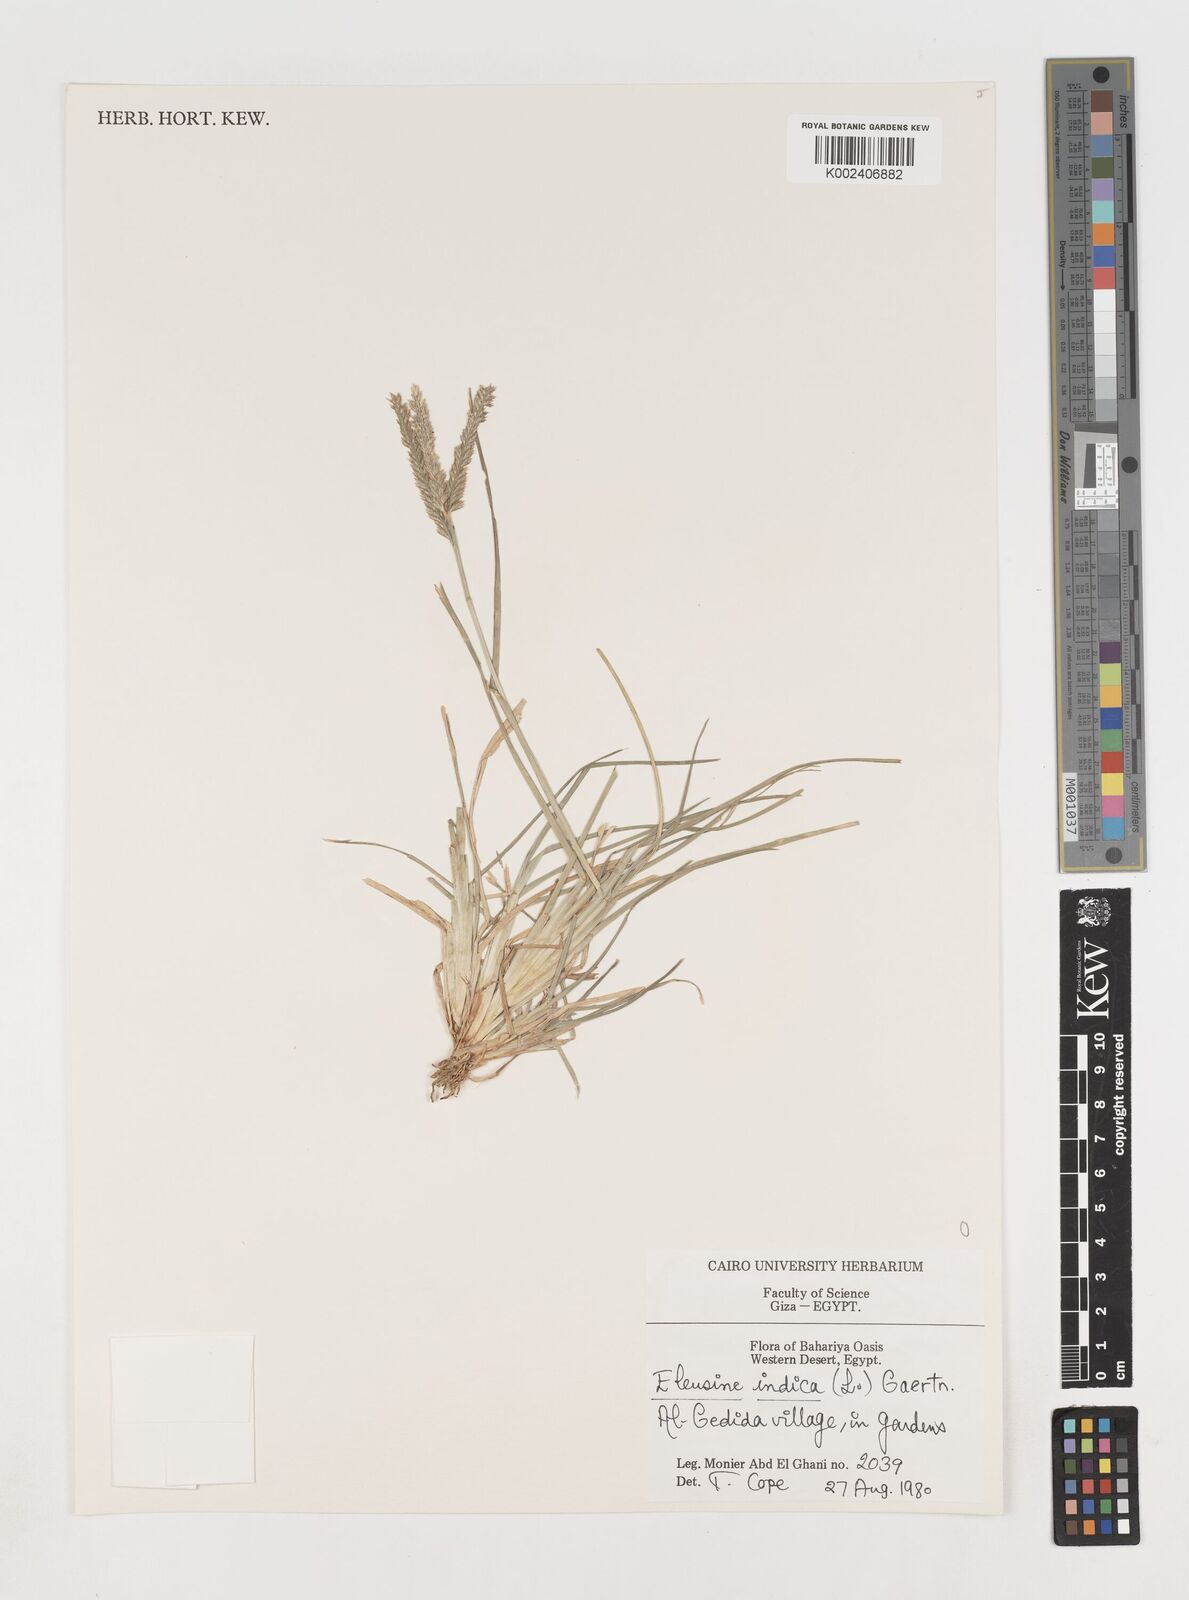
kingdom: Plantae
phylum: Tracheophyta
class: Liliopsida
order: Poales
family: Poaceae
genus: Eleusine
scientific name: Eleusine africana
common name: Wild african finger millet
